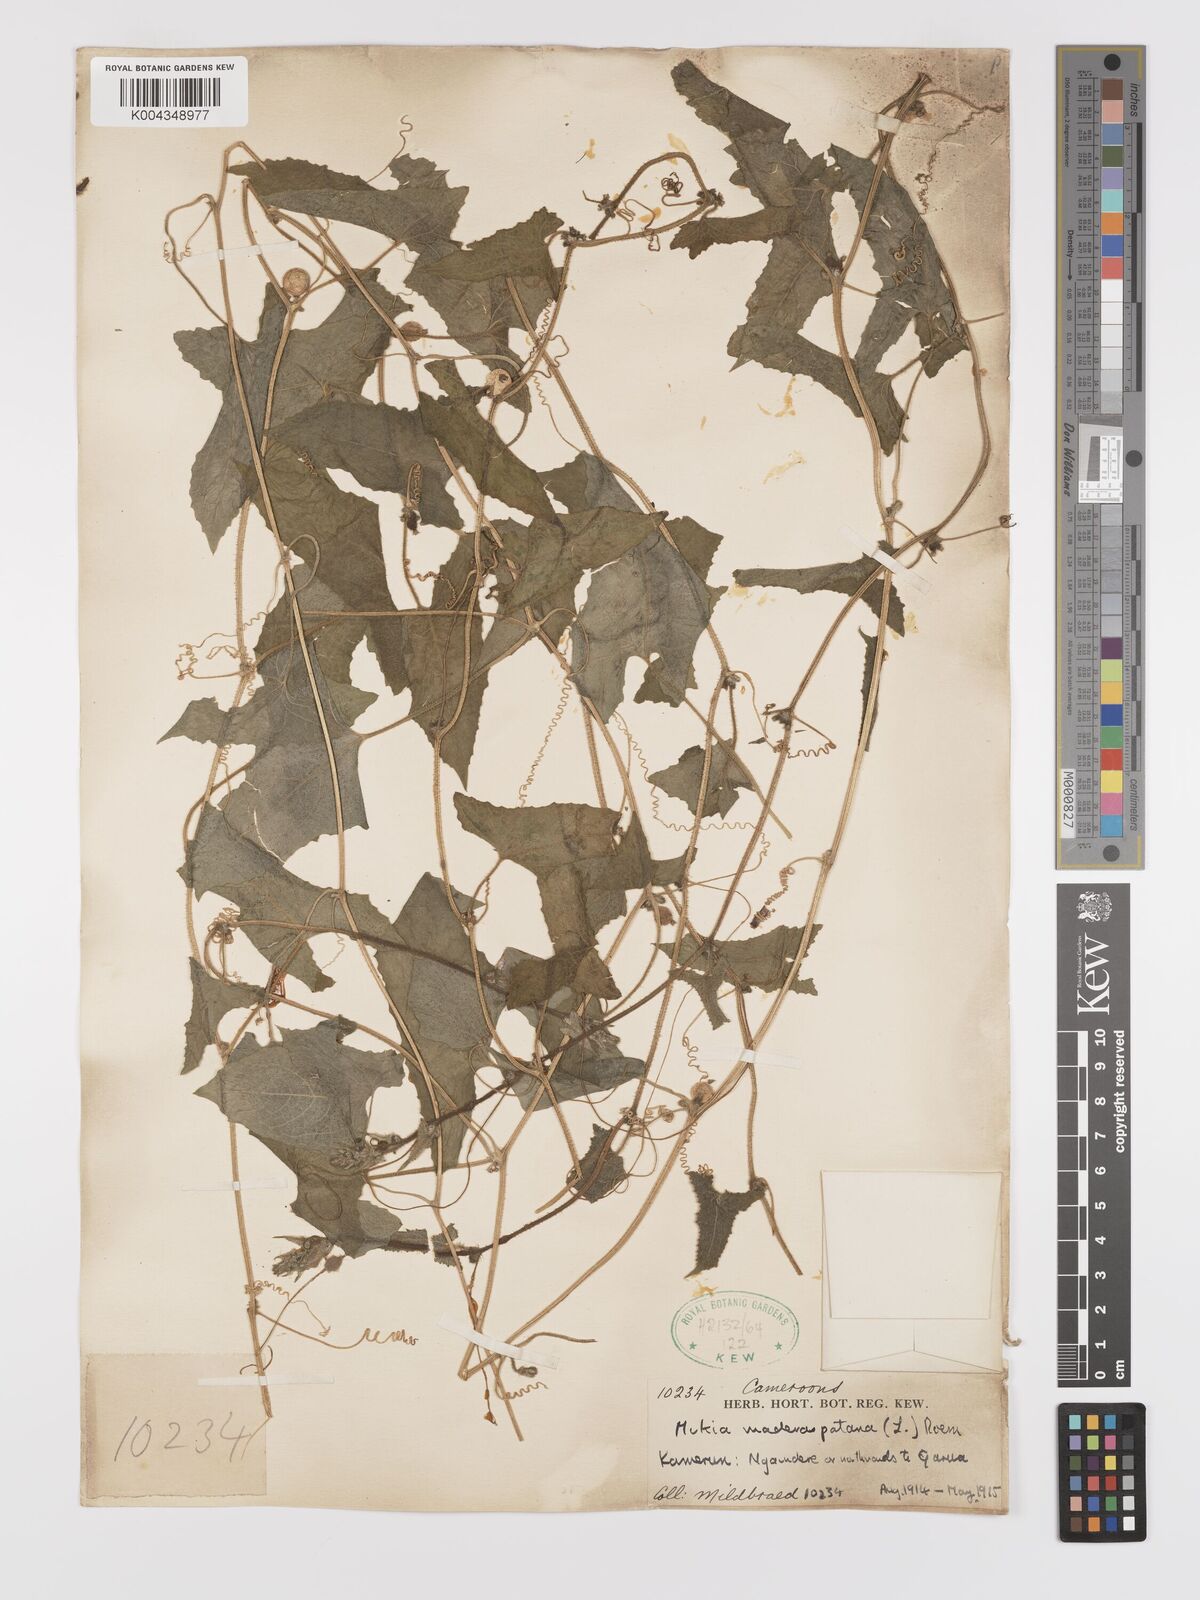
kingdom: Plantae
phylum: Tracheophyta
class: Magnoliopsida
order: Cucurbitales
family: Cucurbitaceae
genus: Cucumis
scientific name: Cucumis maderaspatanus
